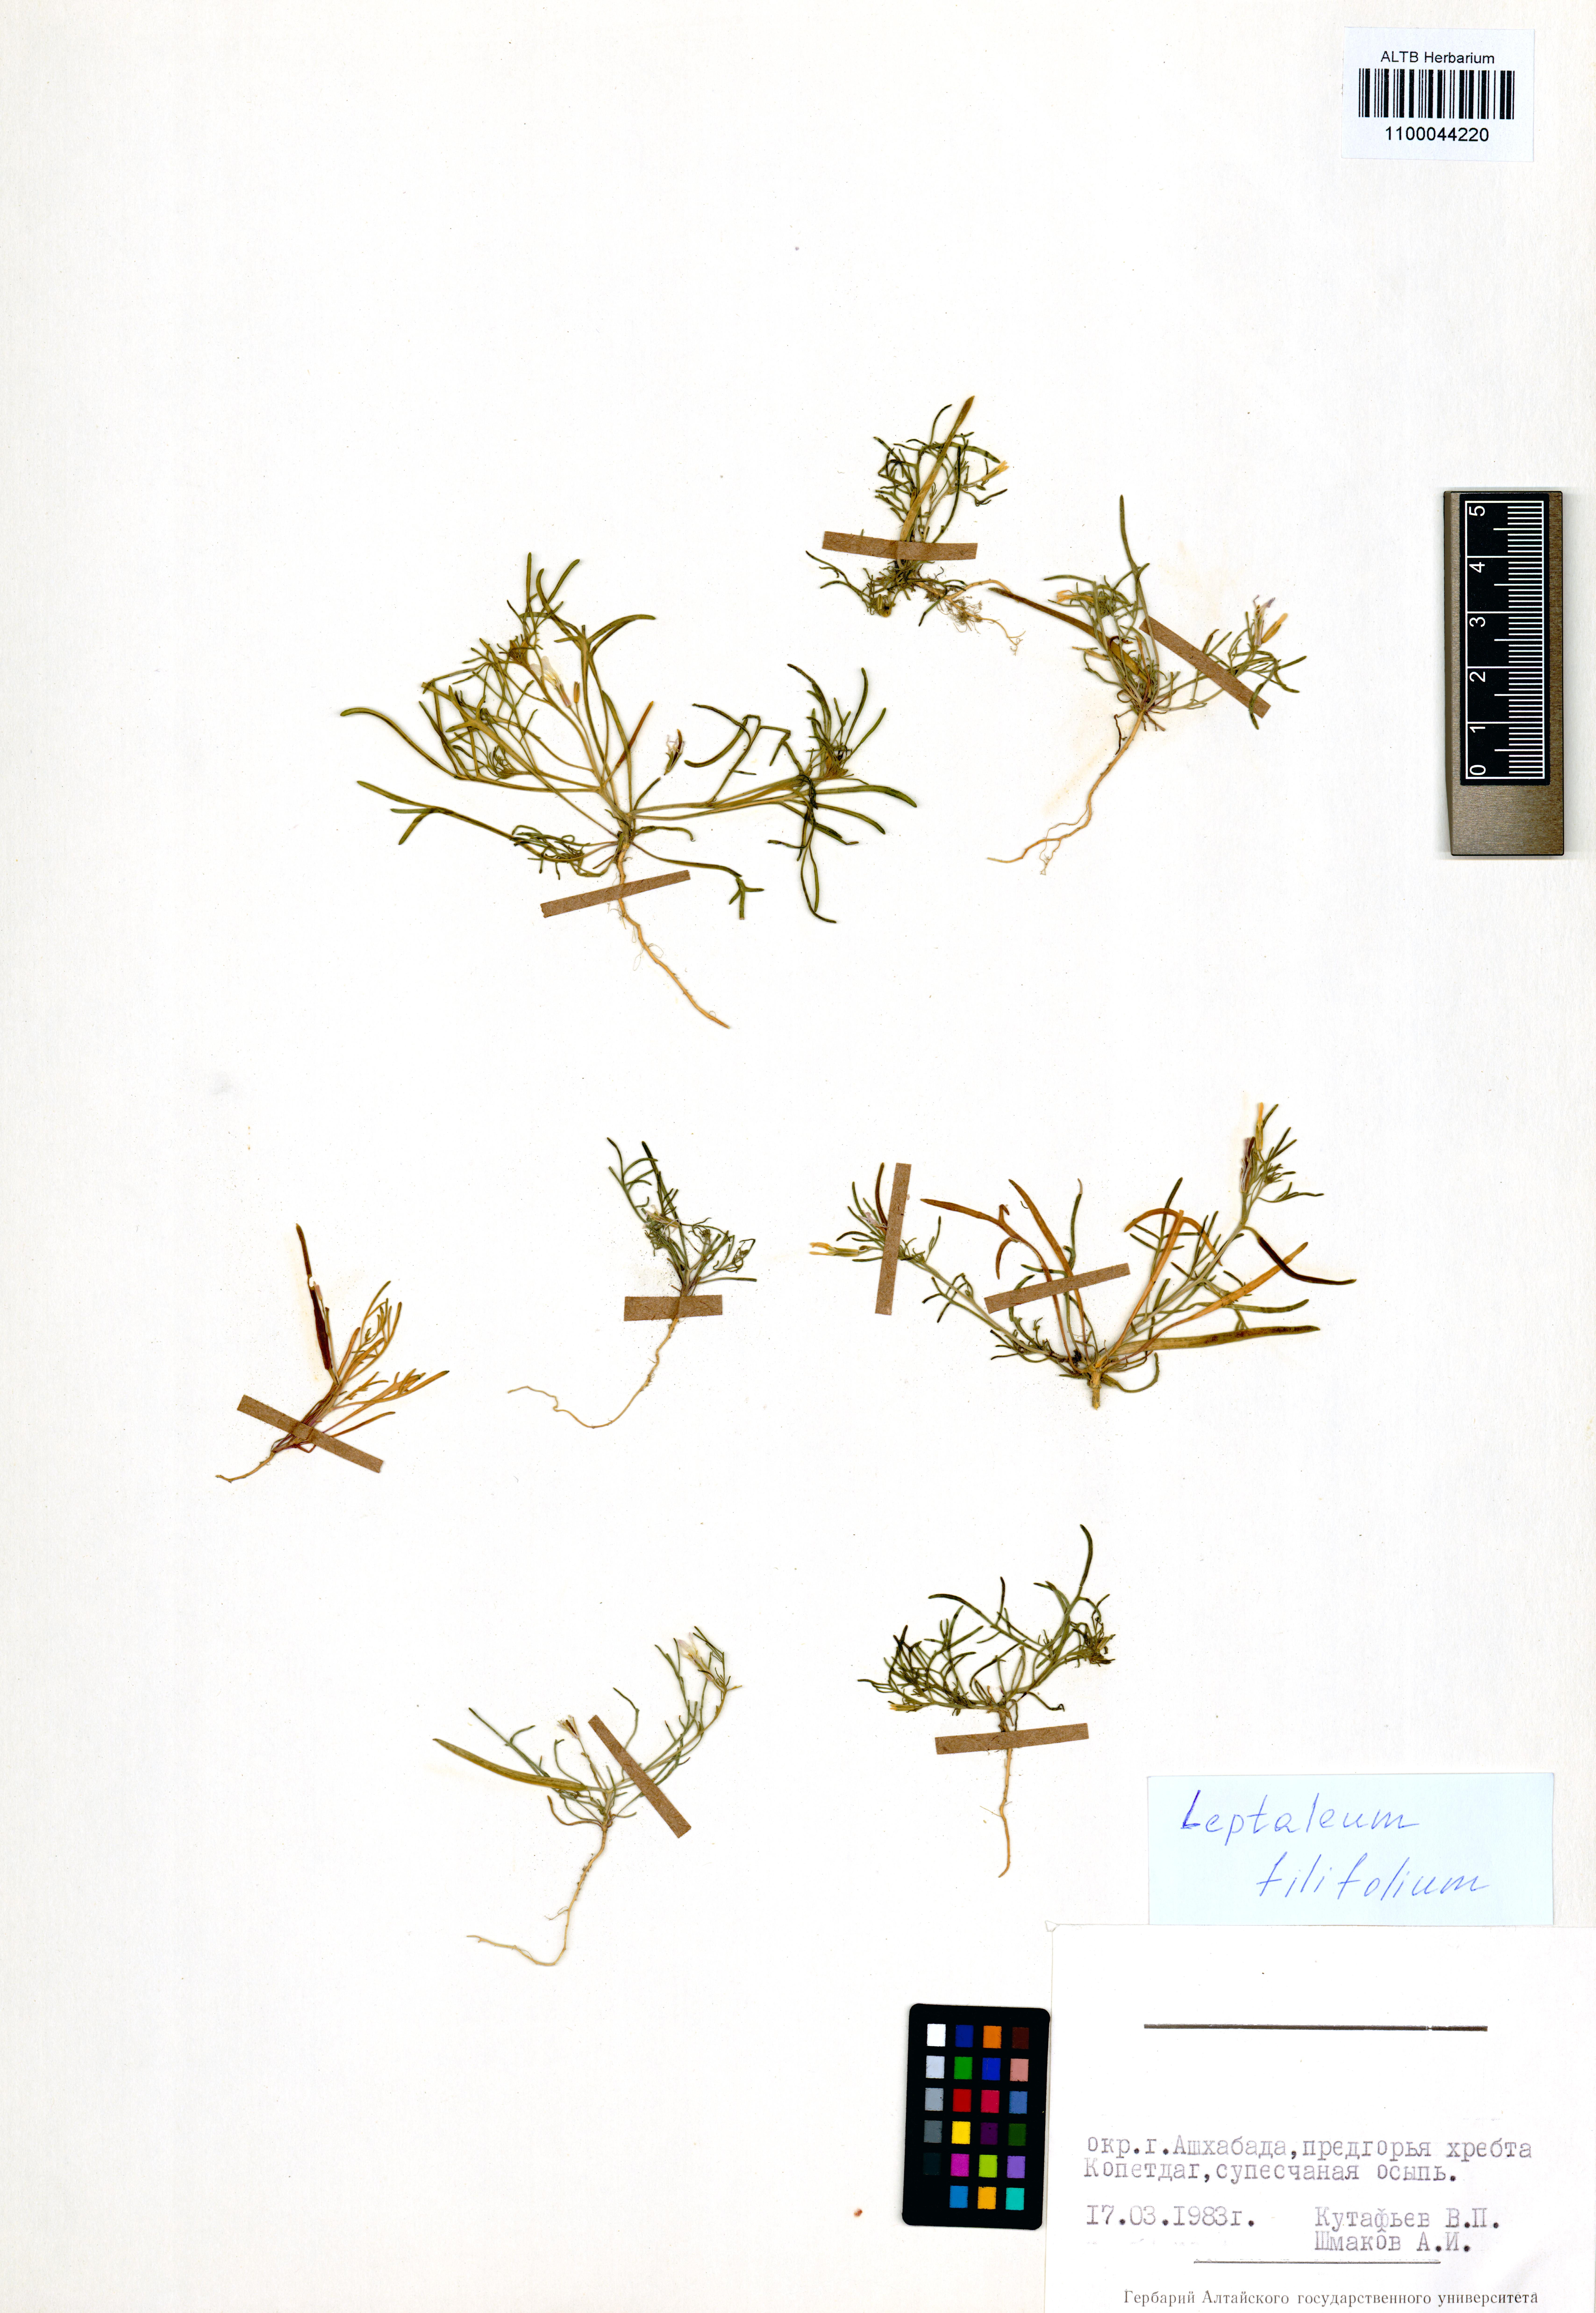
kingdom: Plantae
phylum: Tracheophyta
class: Magnoliopsida
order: Brassicales
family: Brassicaceae
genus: Leptaleum
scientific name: Leptaleum filifolium
